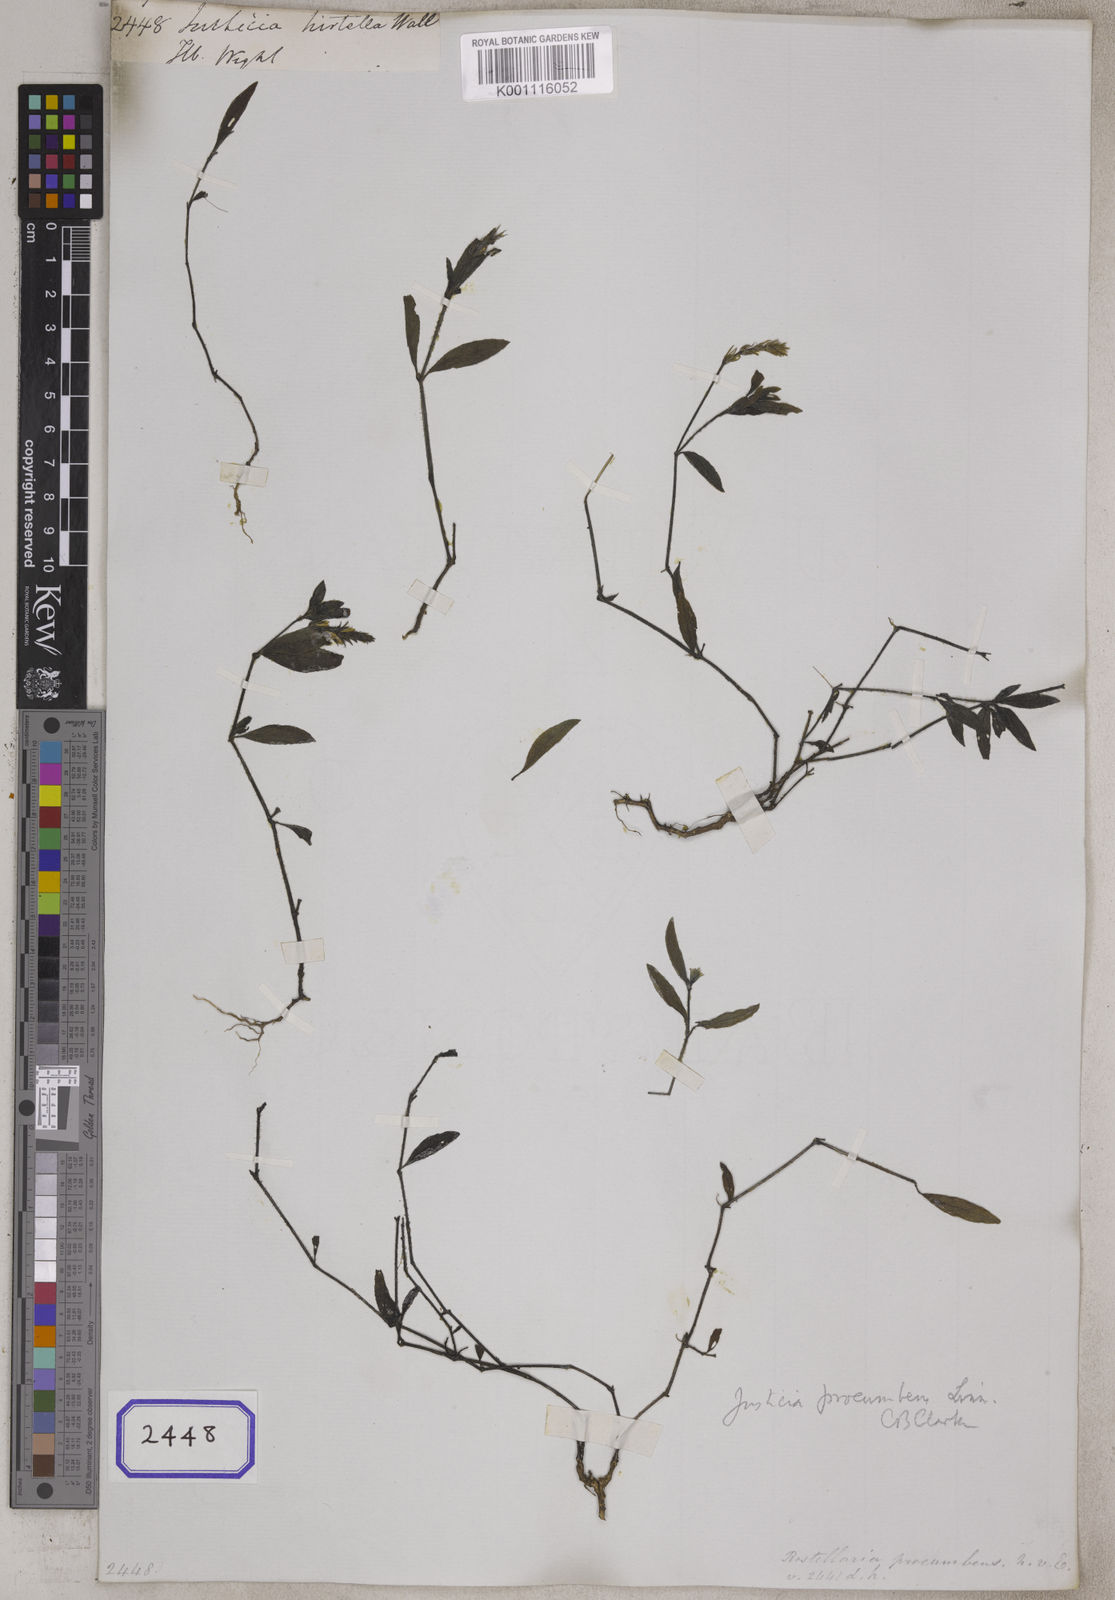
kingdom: Plantae
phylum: Tracheophyta
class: Magnoliopsida
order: Lamiales
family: Acanthaceae
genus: Rostellularia
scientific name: Rostellularia procumbens
